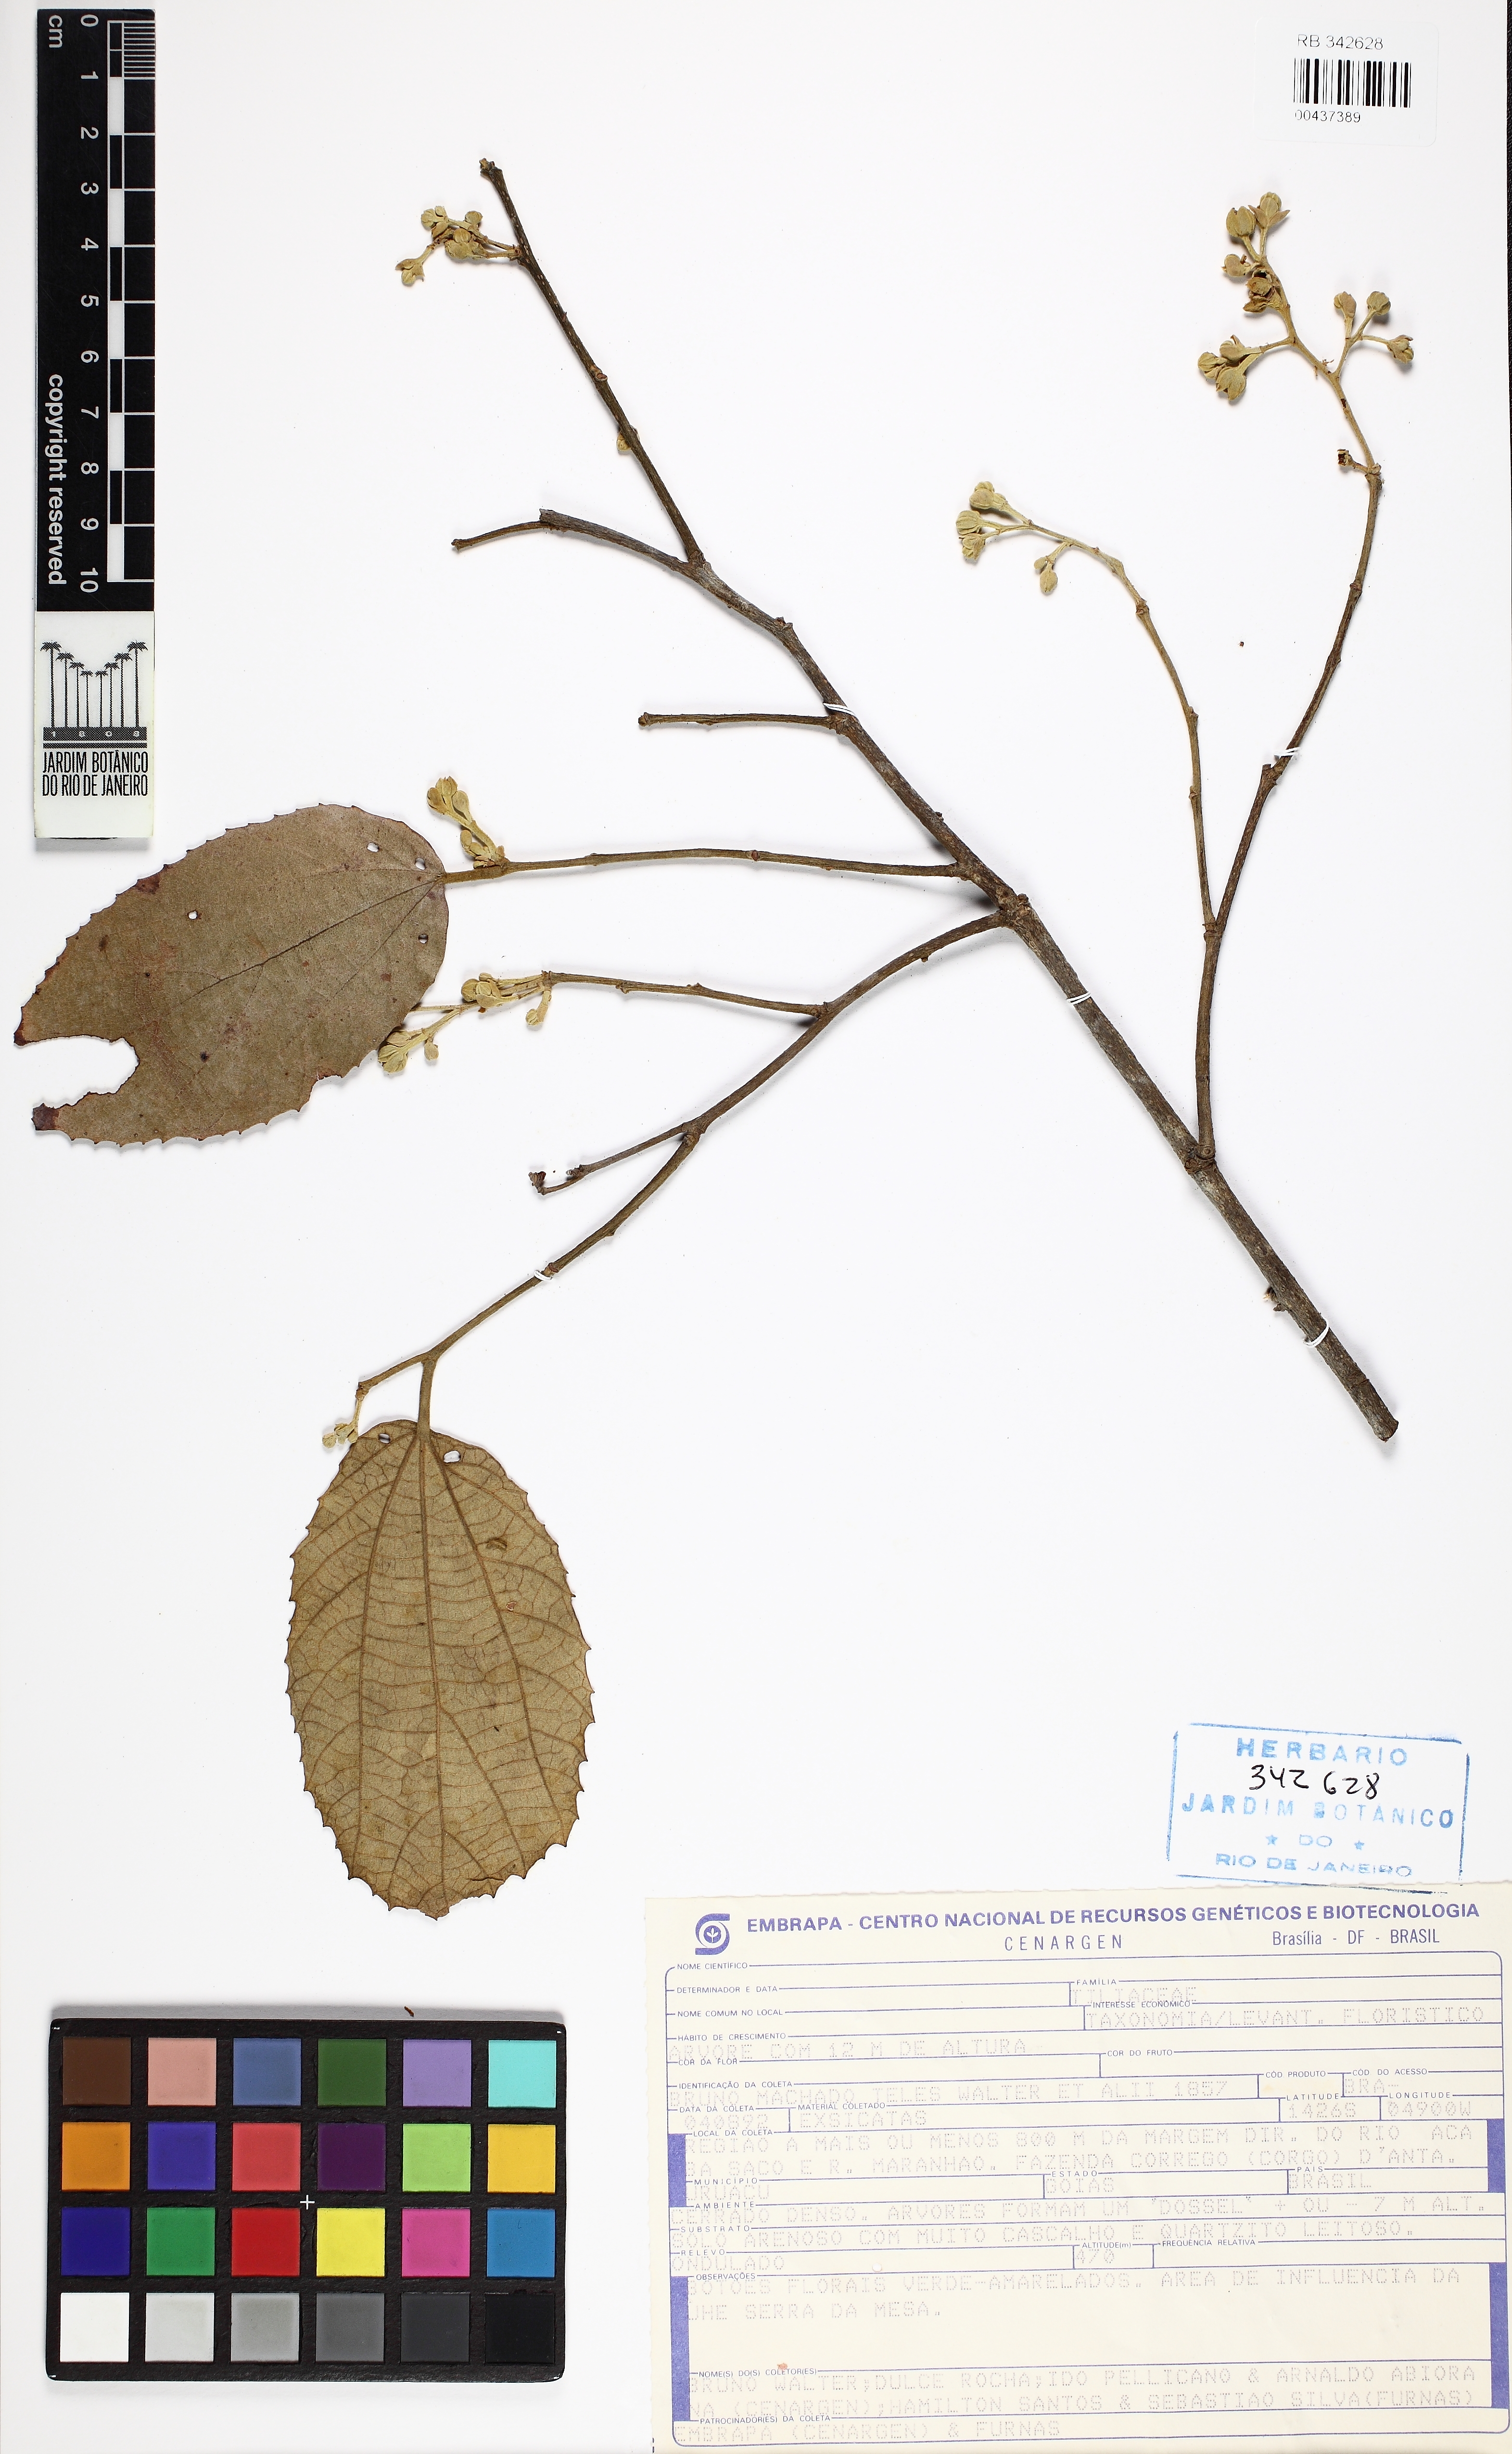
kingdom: Plantae
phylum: Tracheophyta
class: Magnoliopsida
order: Malpighiales
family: Salicaceae
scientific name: Salicaceae
